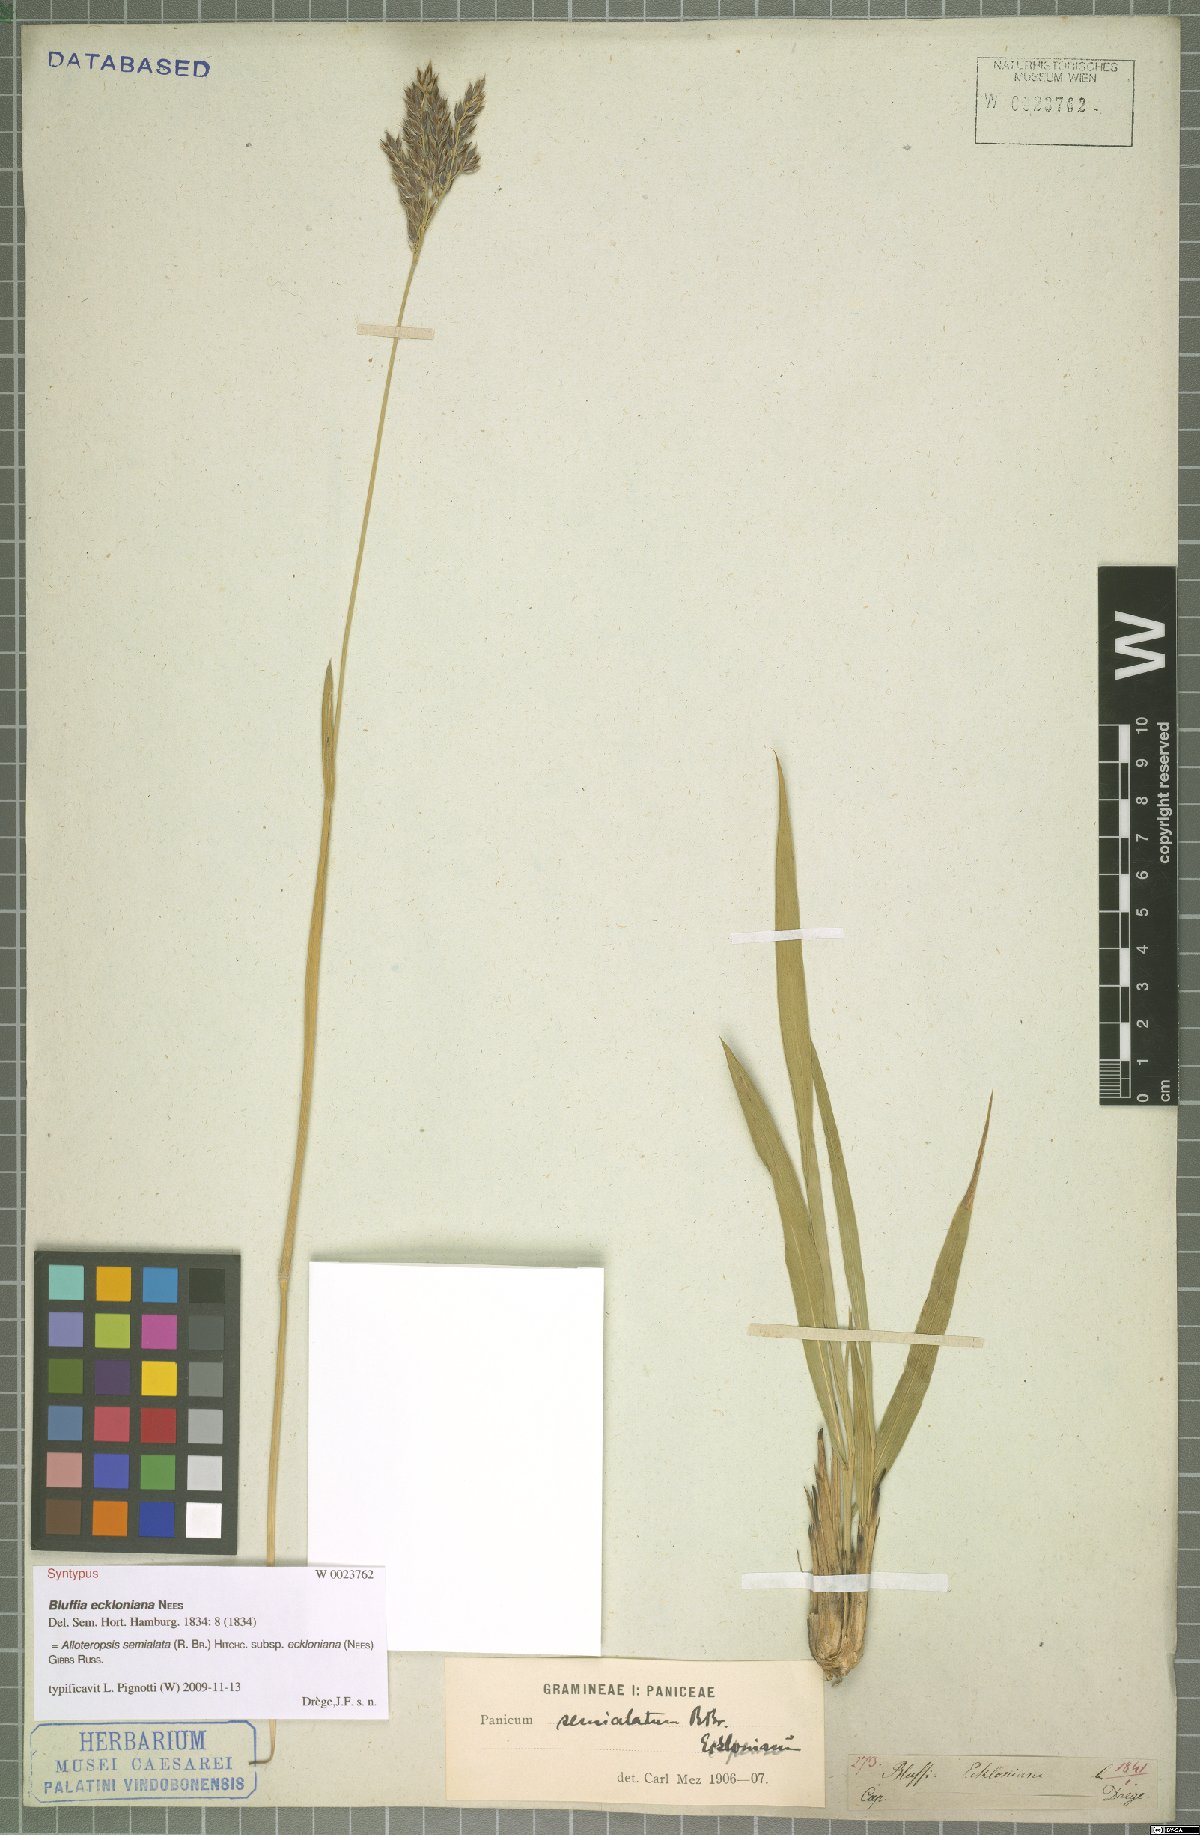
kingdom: Plantae
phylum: Tracheophyta
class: Liliopsida
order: Poales
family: Poaceae
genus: Alloteropsis
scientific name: Alloteropsis semialata
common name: Cockatoo grass
